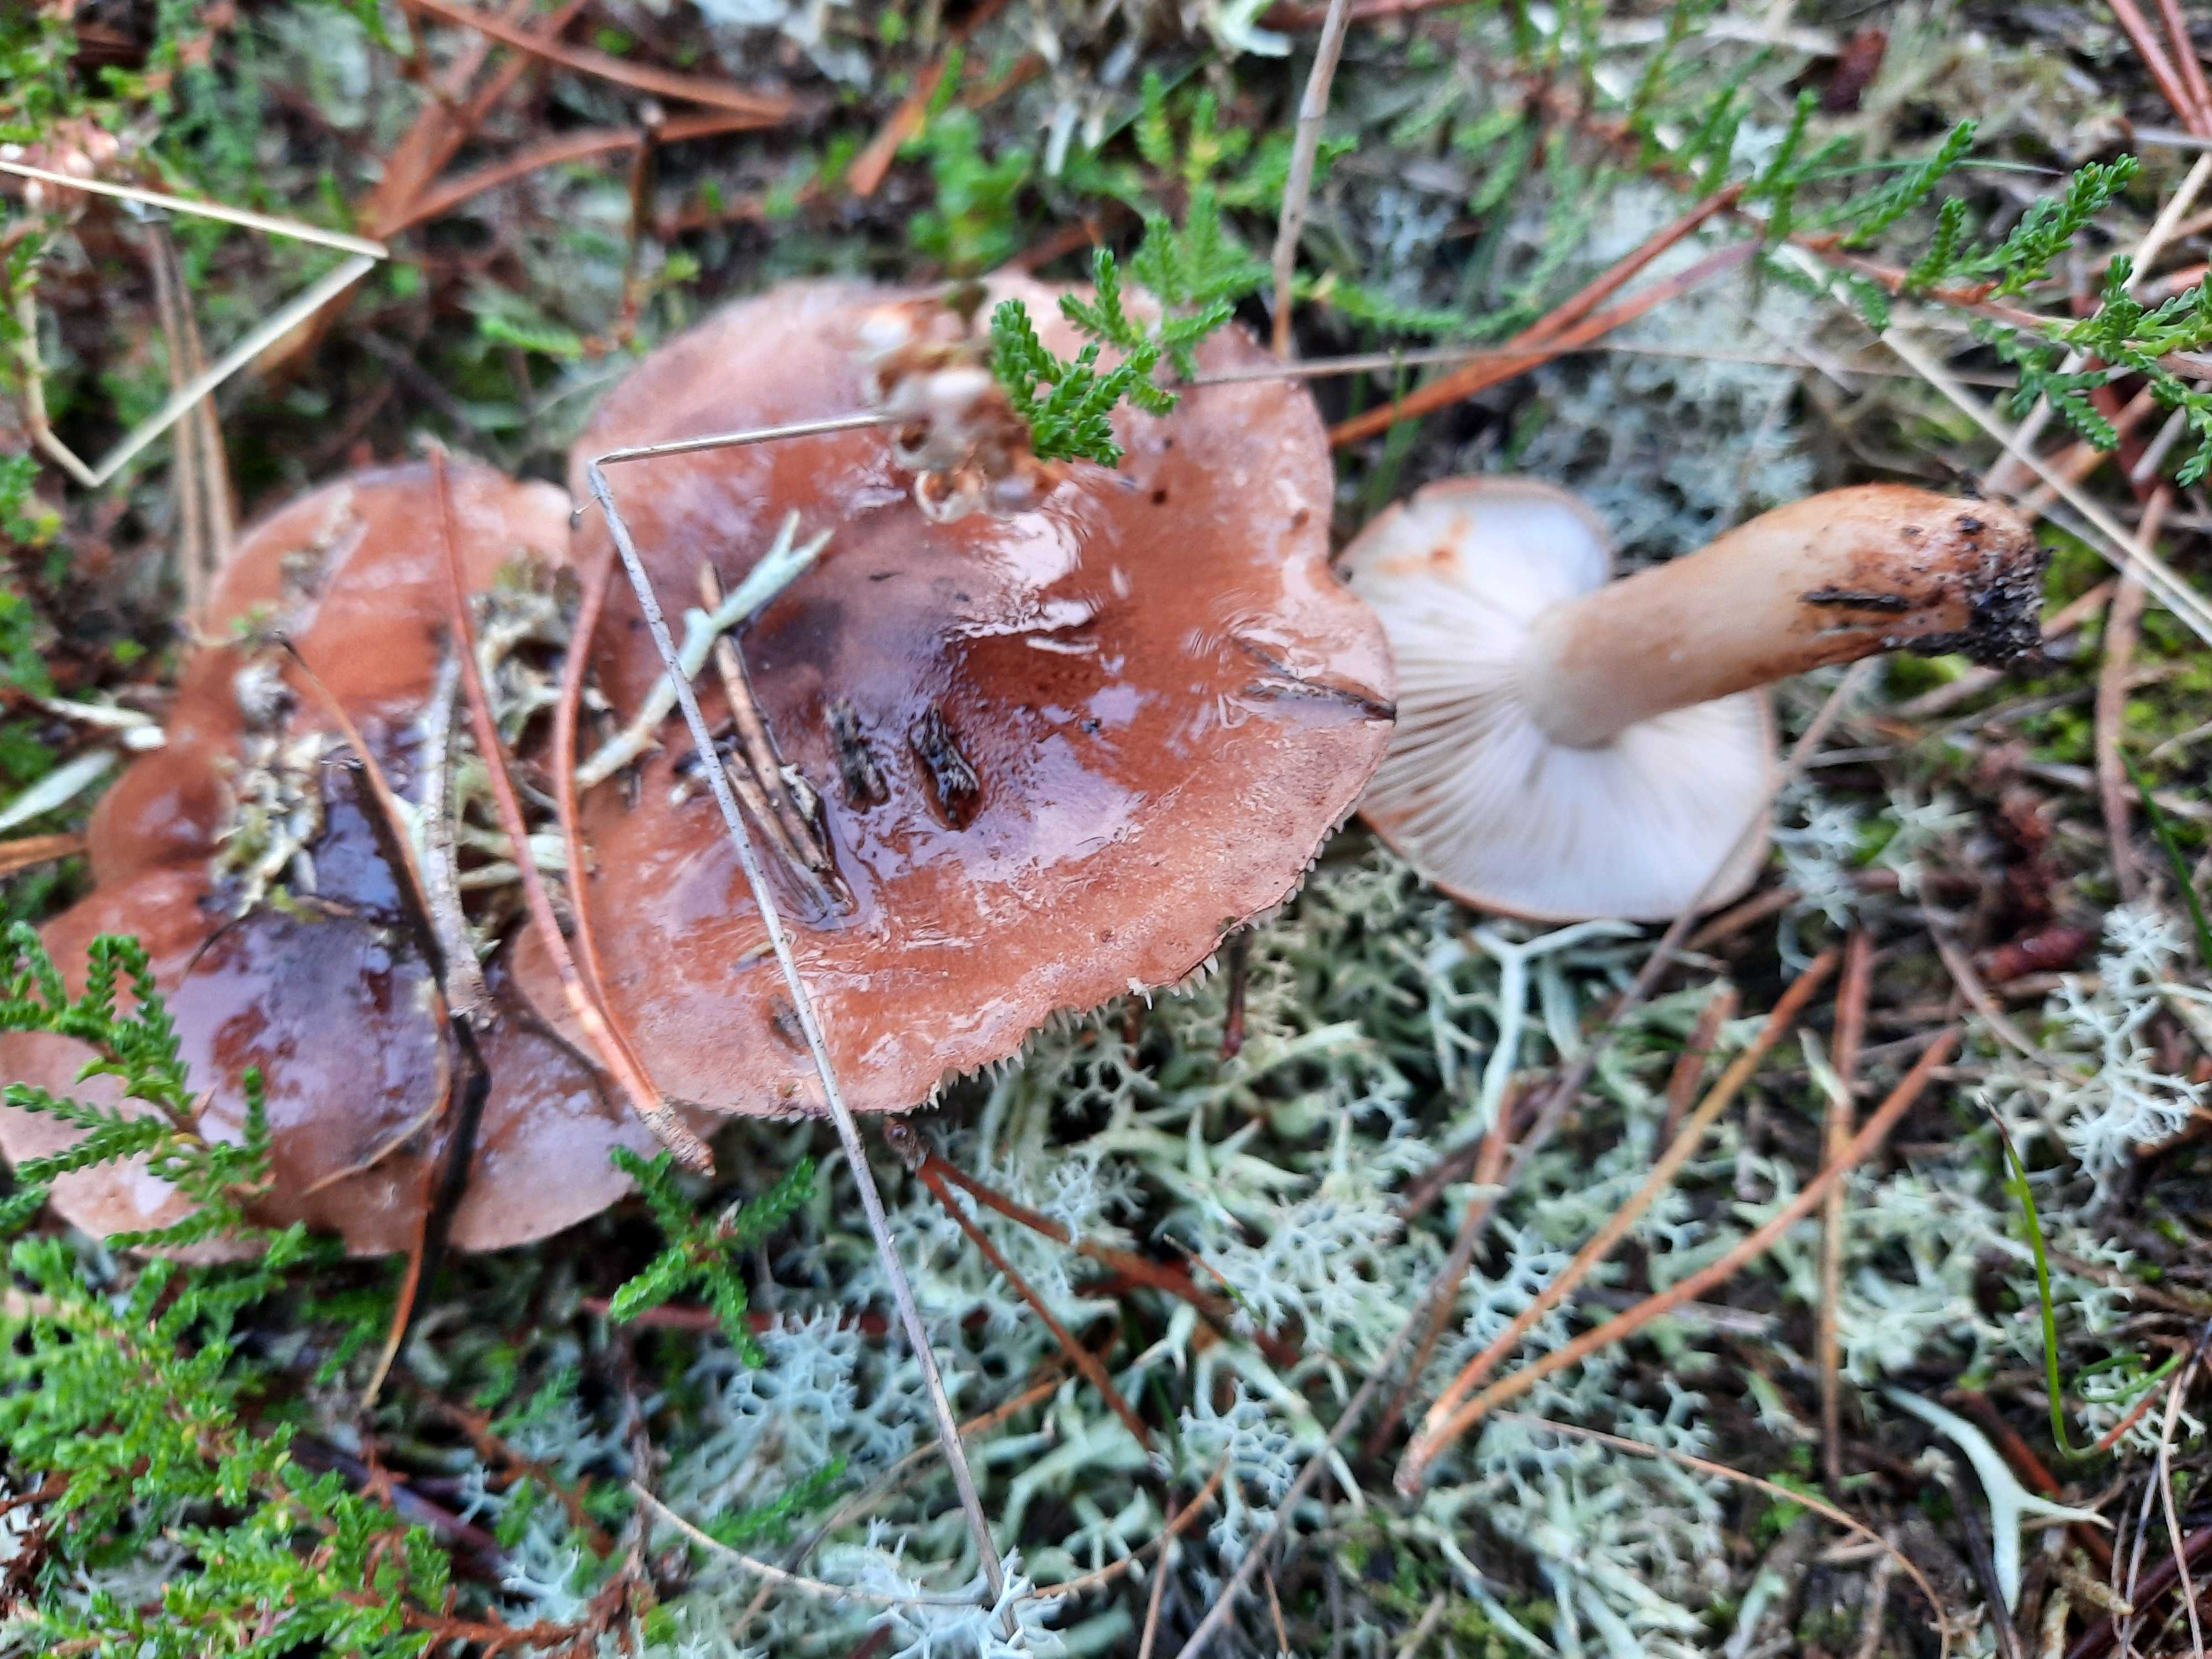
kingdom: Fungi
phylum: Basidiomycota
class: Agaricomycetes
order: Agaricales
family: Tricholomataceae
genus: Tricholoma
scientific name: Tricholoma albobrunneum
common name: kastanie-ridderhat
